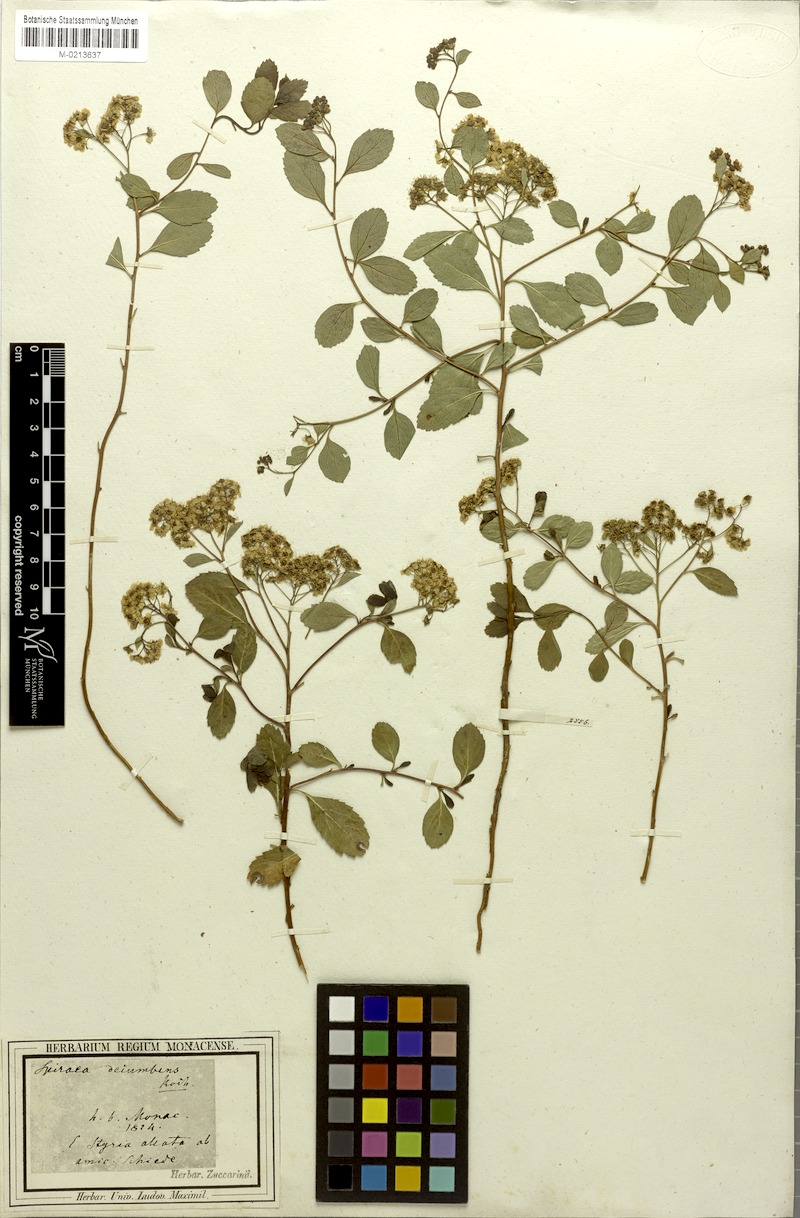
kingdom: Plantae
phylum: Tracheophyta
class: Magnoliopsida
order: Rosales
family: Rosaceae
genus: Spiraea
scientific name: Spiraea decumbens
